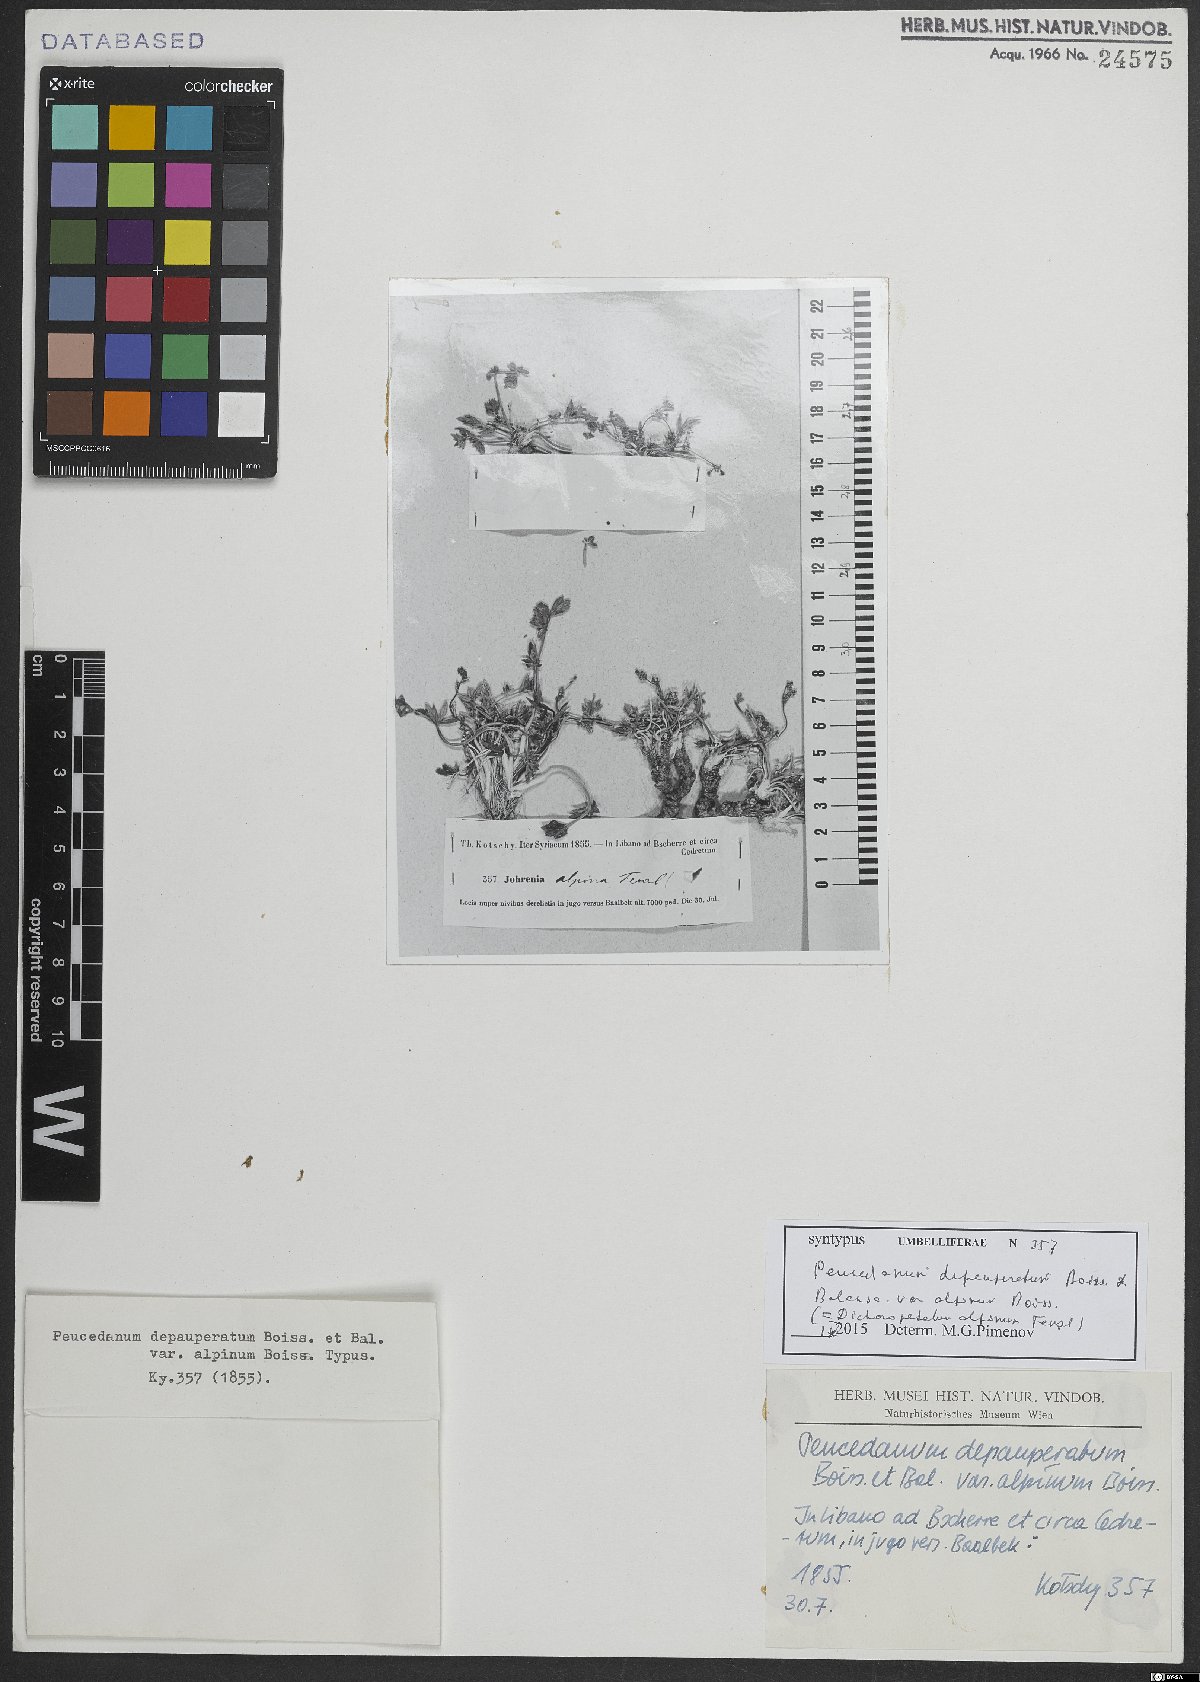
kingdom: Plantae
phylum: Tracheophyta
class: Magnoliopsida
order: Apiales
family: Apiaceae
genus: Dichoropetalum
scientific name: Dichoropetalum alpinum
